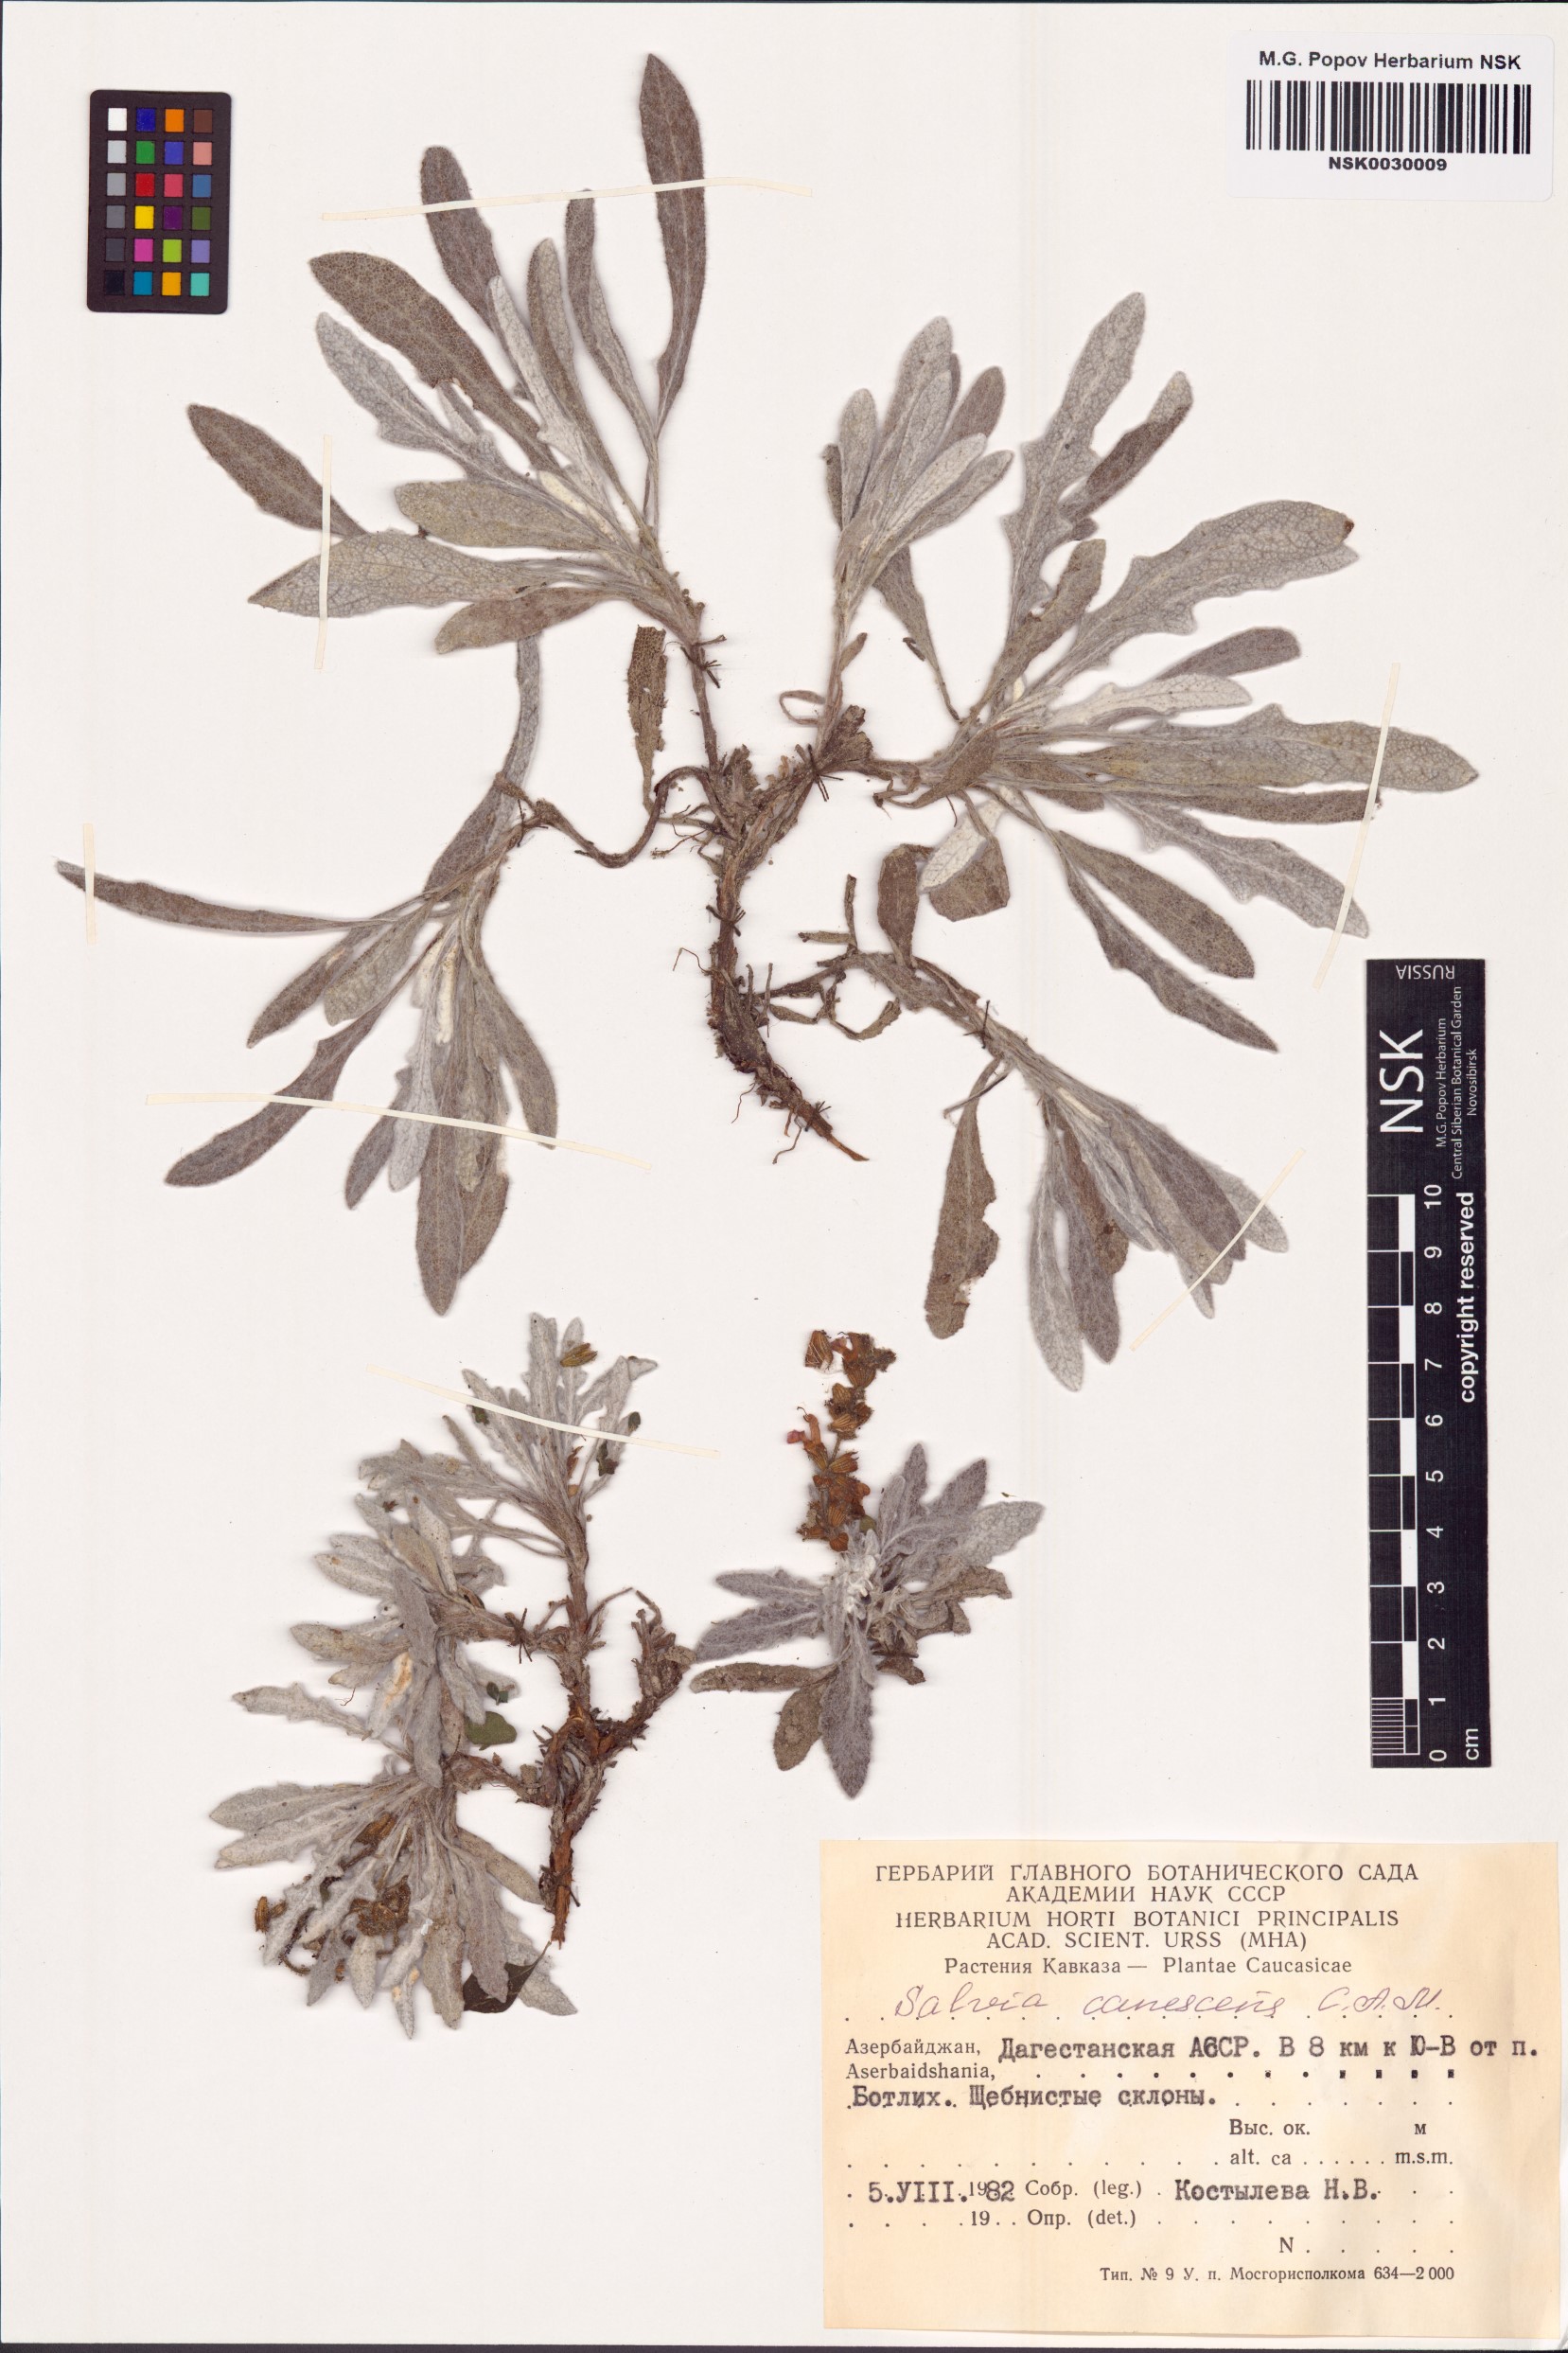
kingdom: Plantae
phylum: Tracheophyta
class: Magnoliopsida
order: Lamiales
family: Lamiaceae
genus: Salvia
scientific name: Salvia canescens
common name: Hoary salvia
